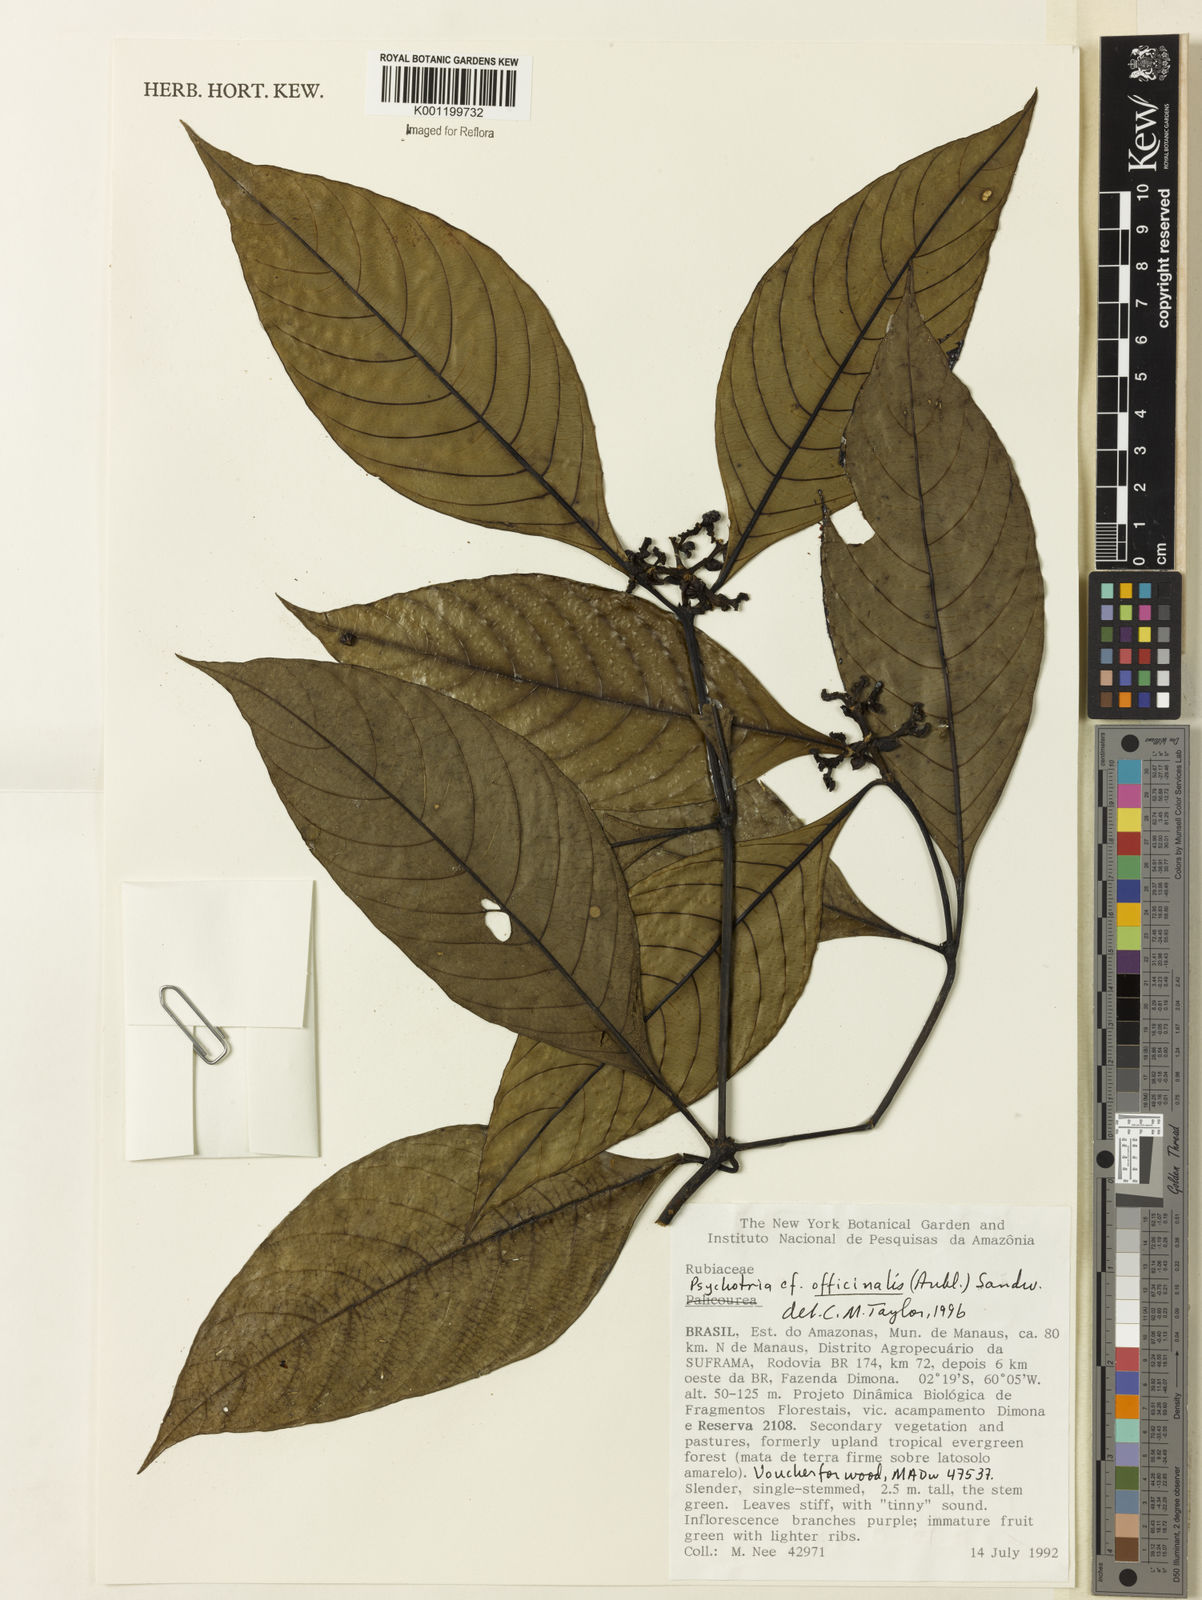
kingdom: Plantae
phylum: Tracheophyta
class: Magnoliopsida
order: Gentianales
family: Rubiaceae
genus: Psychotria
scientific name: Psychotria
